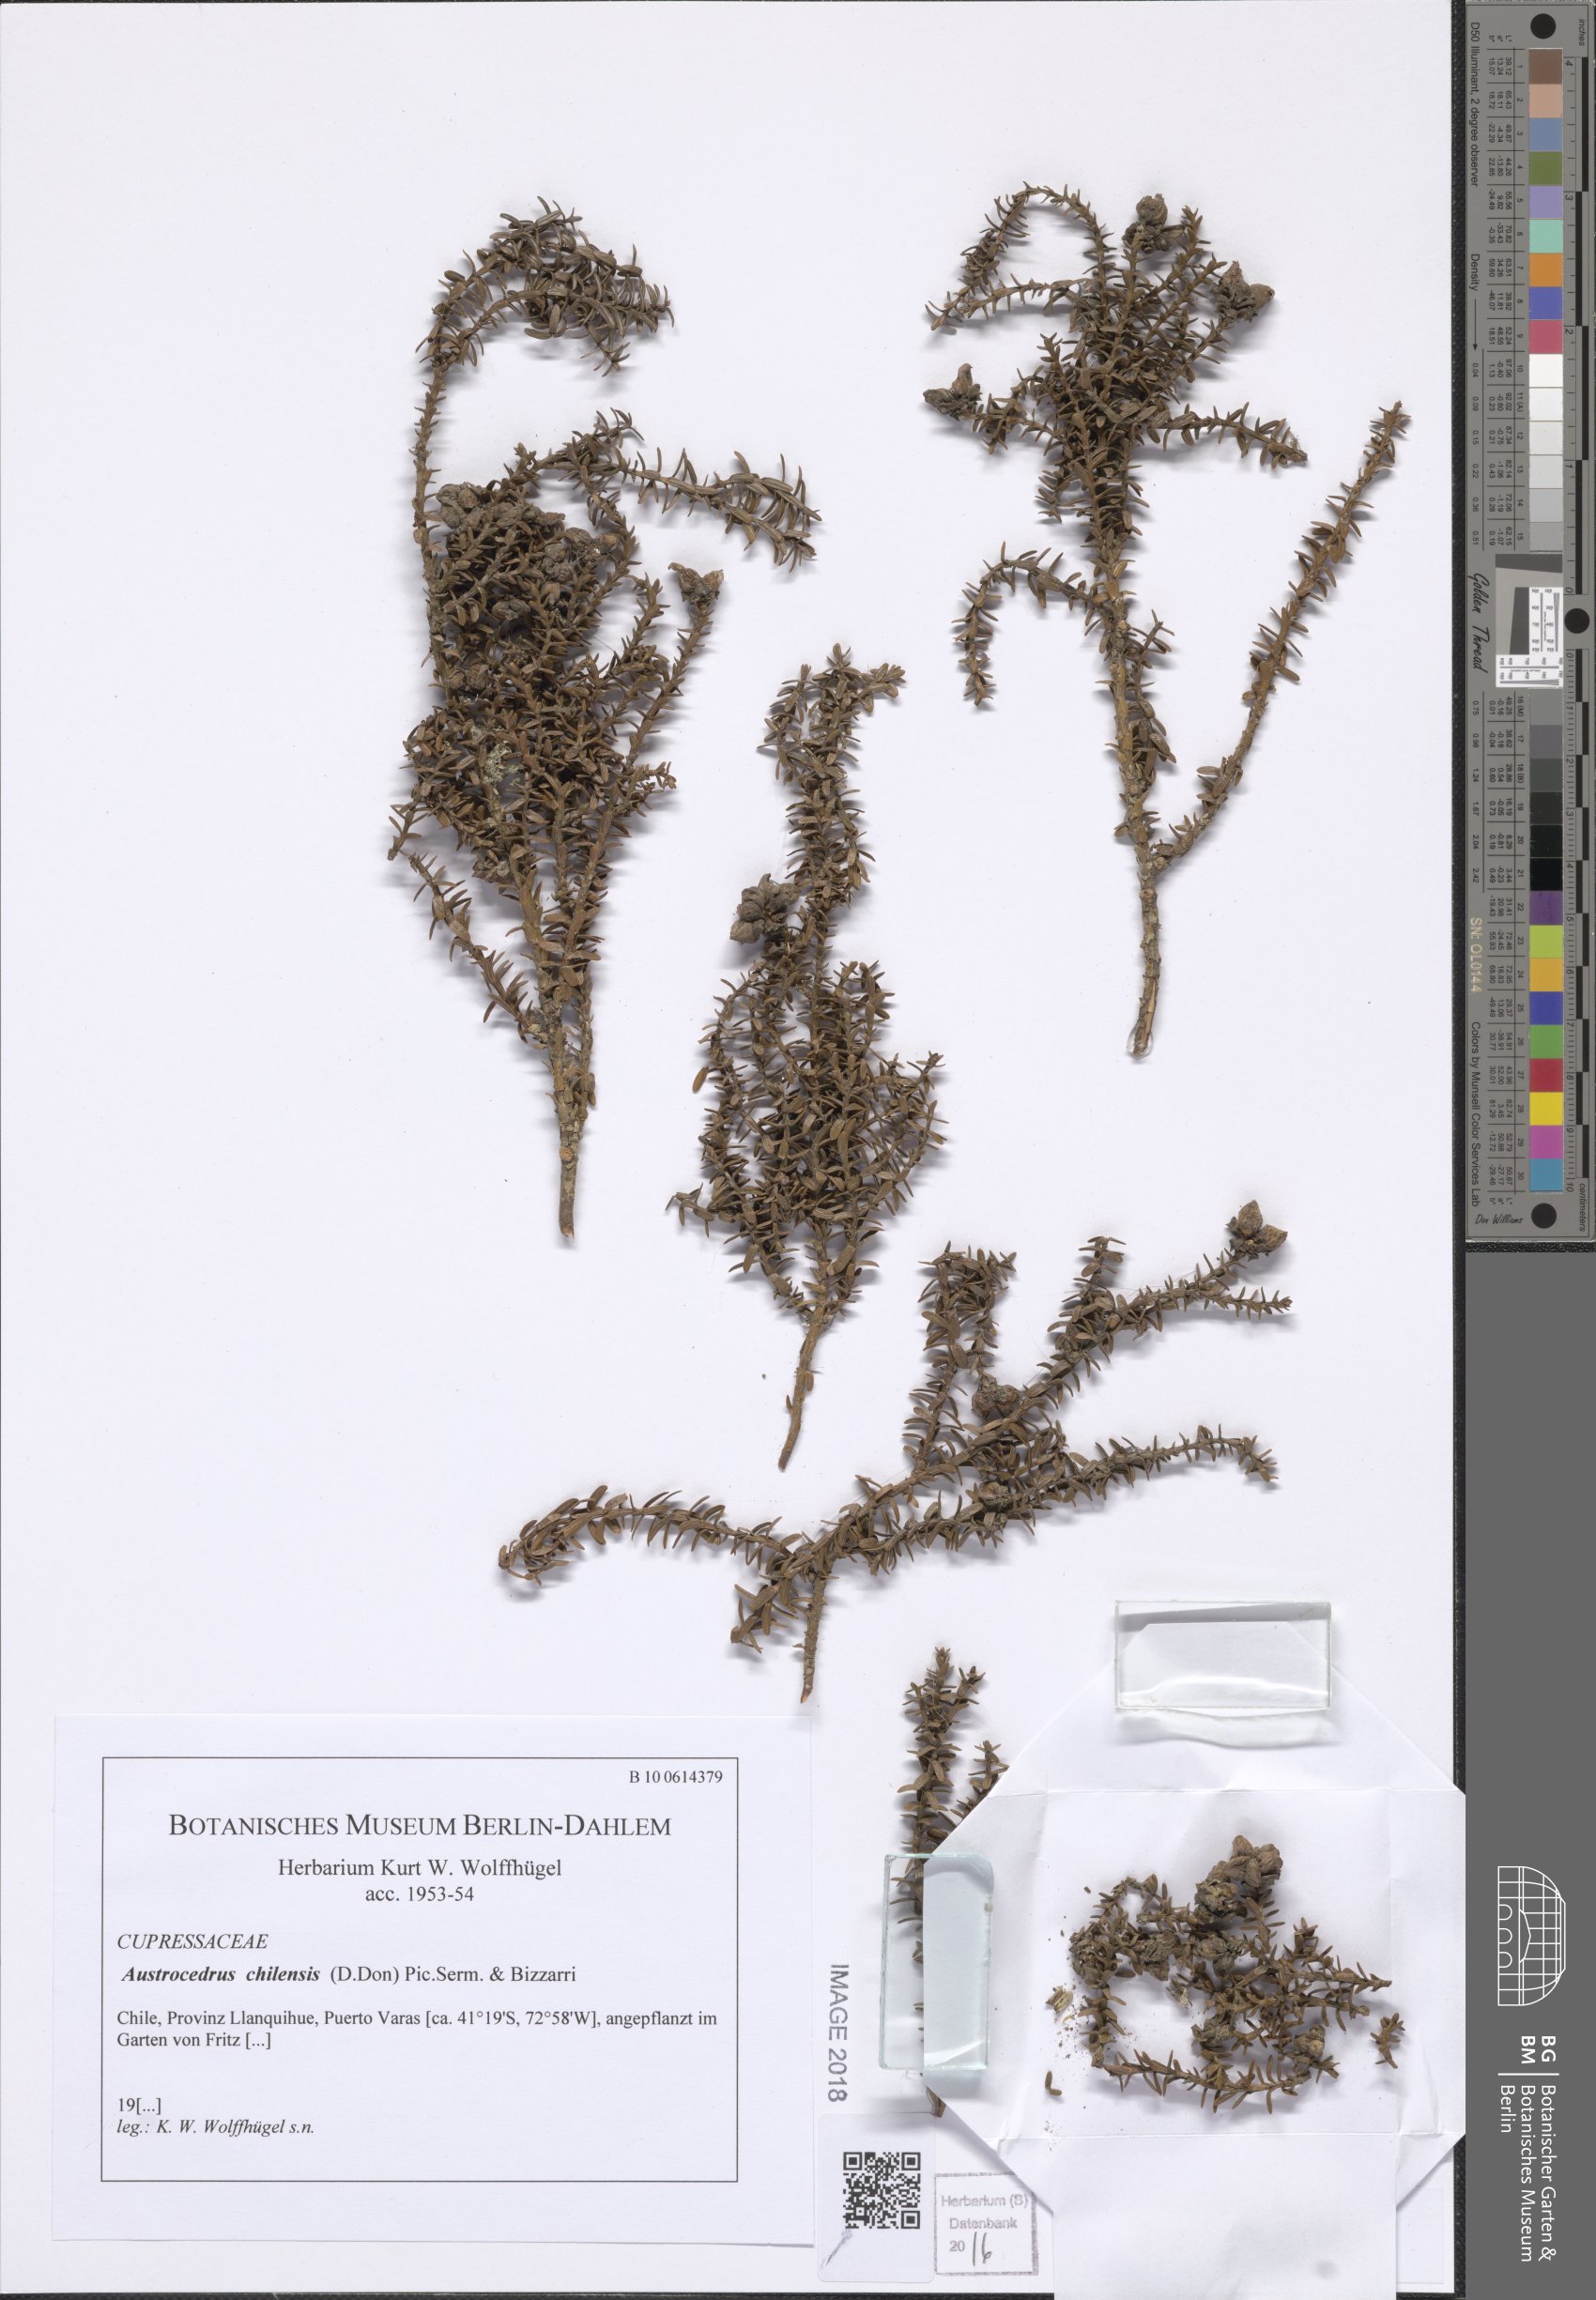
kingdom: Plantae
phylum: Tracheophyta
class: Pinopsida
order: Pinales
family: Cupressaceae
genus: Austrocedrus
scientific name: Austrocedrus chilensis
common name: Chilean incense-cedar
